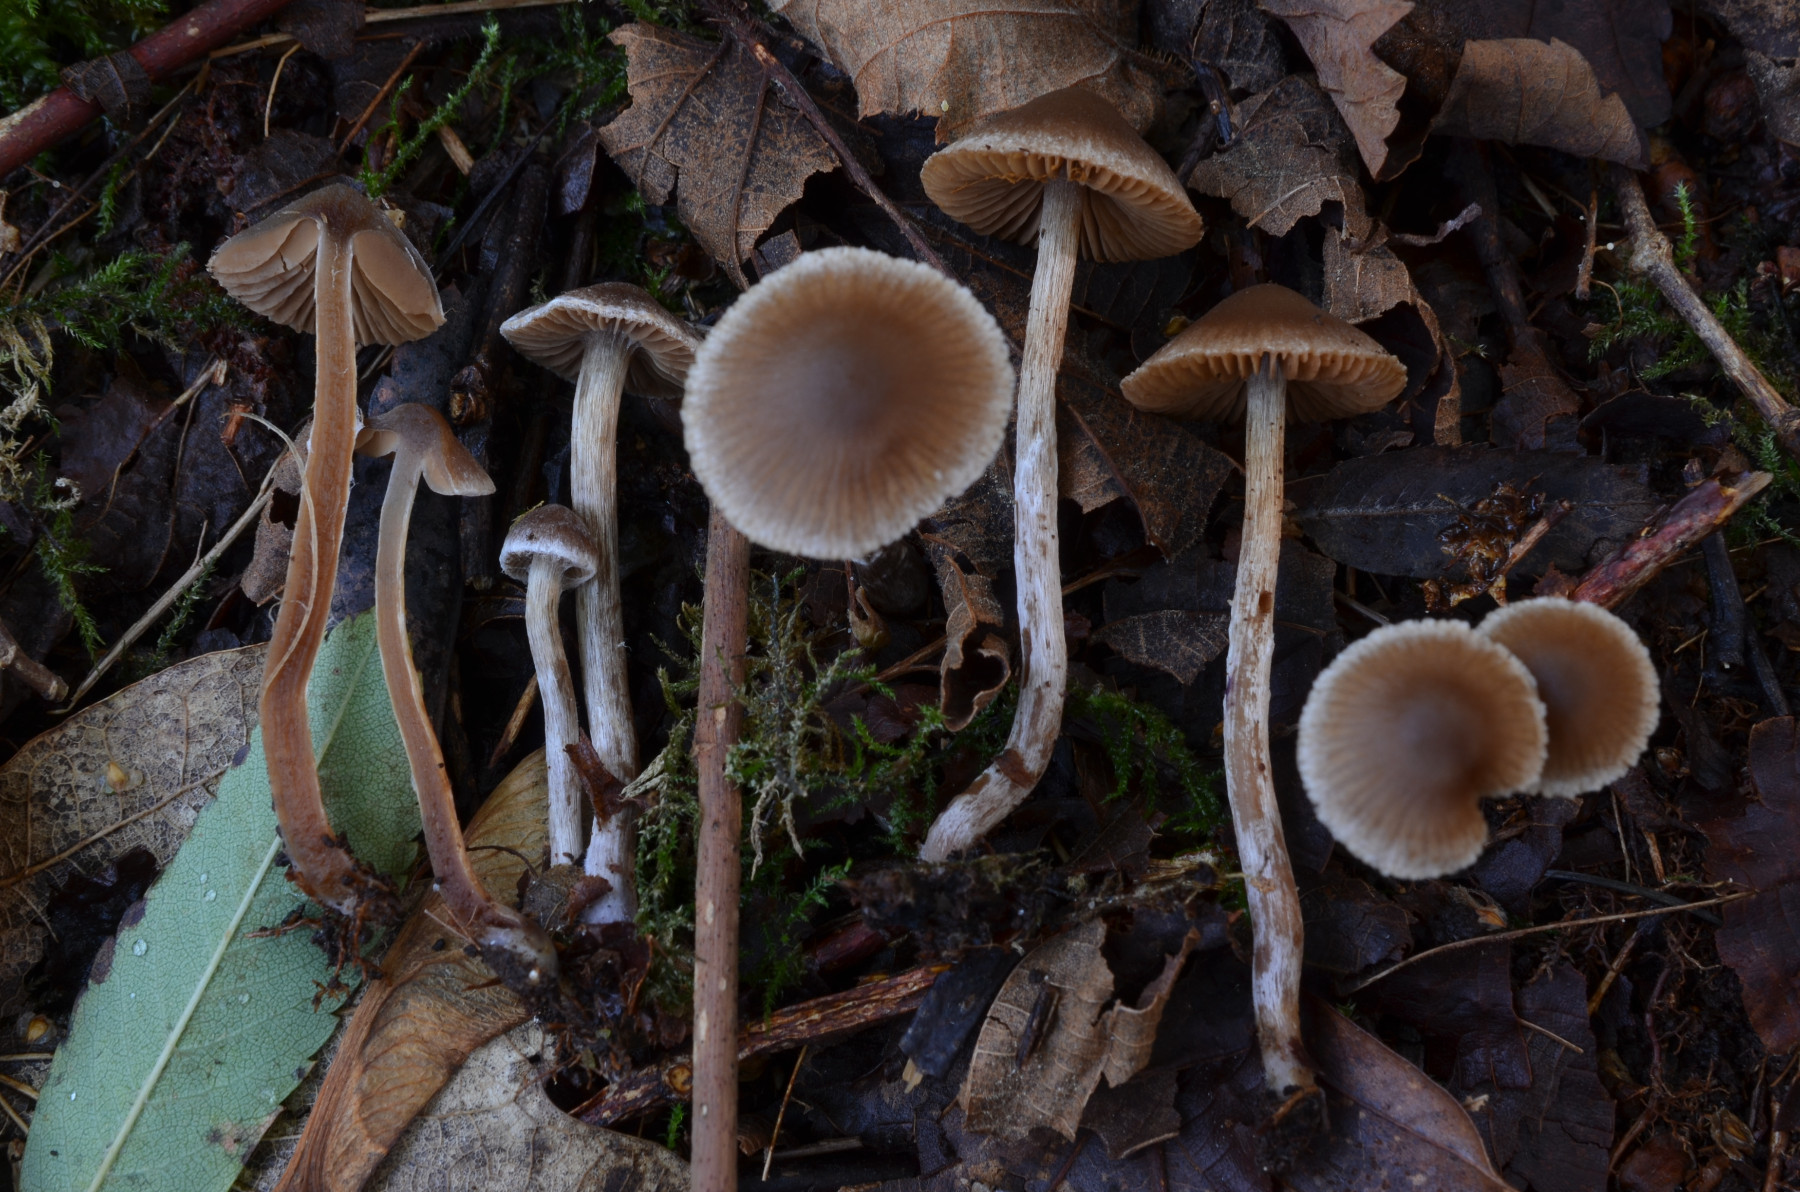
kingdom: Fungi
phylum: Basidiomycota
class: Agaricomycetes
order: Agaricales
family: Cortinariaceae
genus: Cortinarius
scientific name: Cortinarius pilatii
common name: Piláts slørhat
